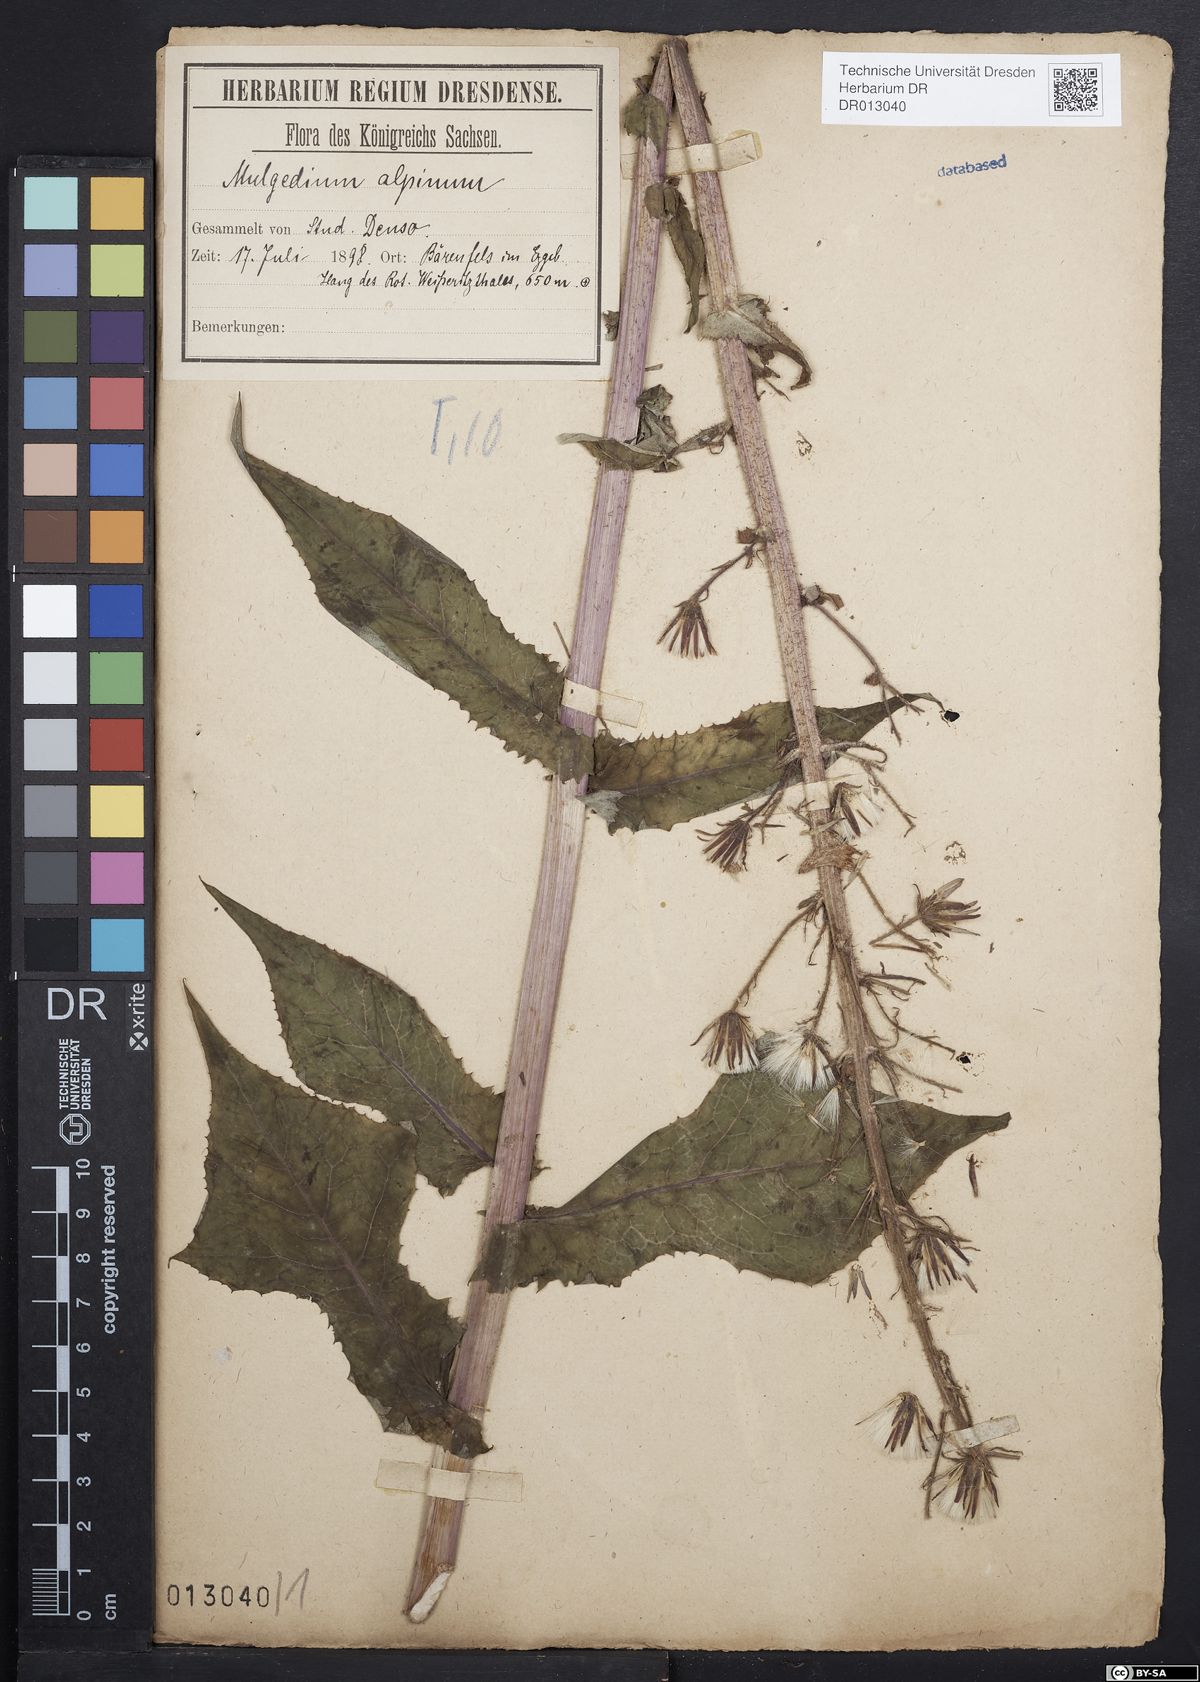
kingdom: Plantae
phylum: Tracheophyta
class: Magnoliopsida
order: Asterales
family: Asteraceae
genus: Cicerbita
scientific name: Cicerbita alpina
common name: Alpine blue-sow-thistle
